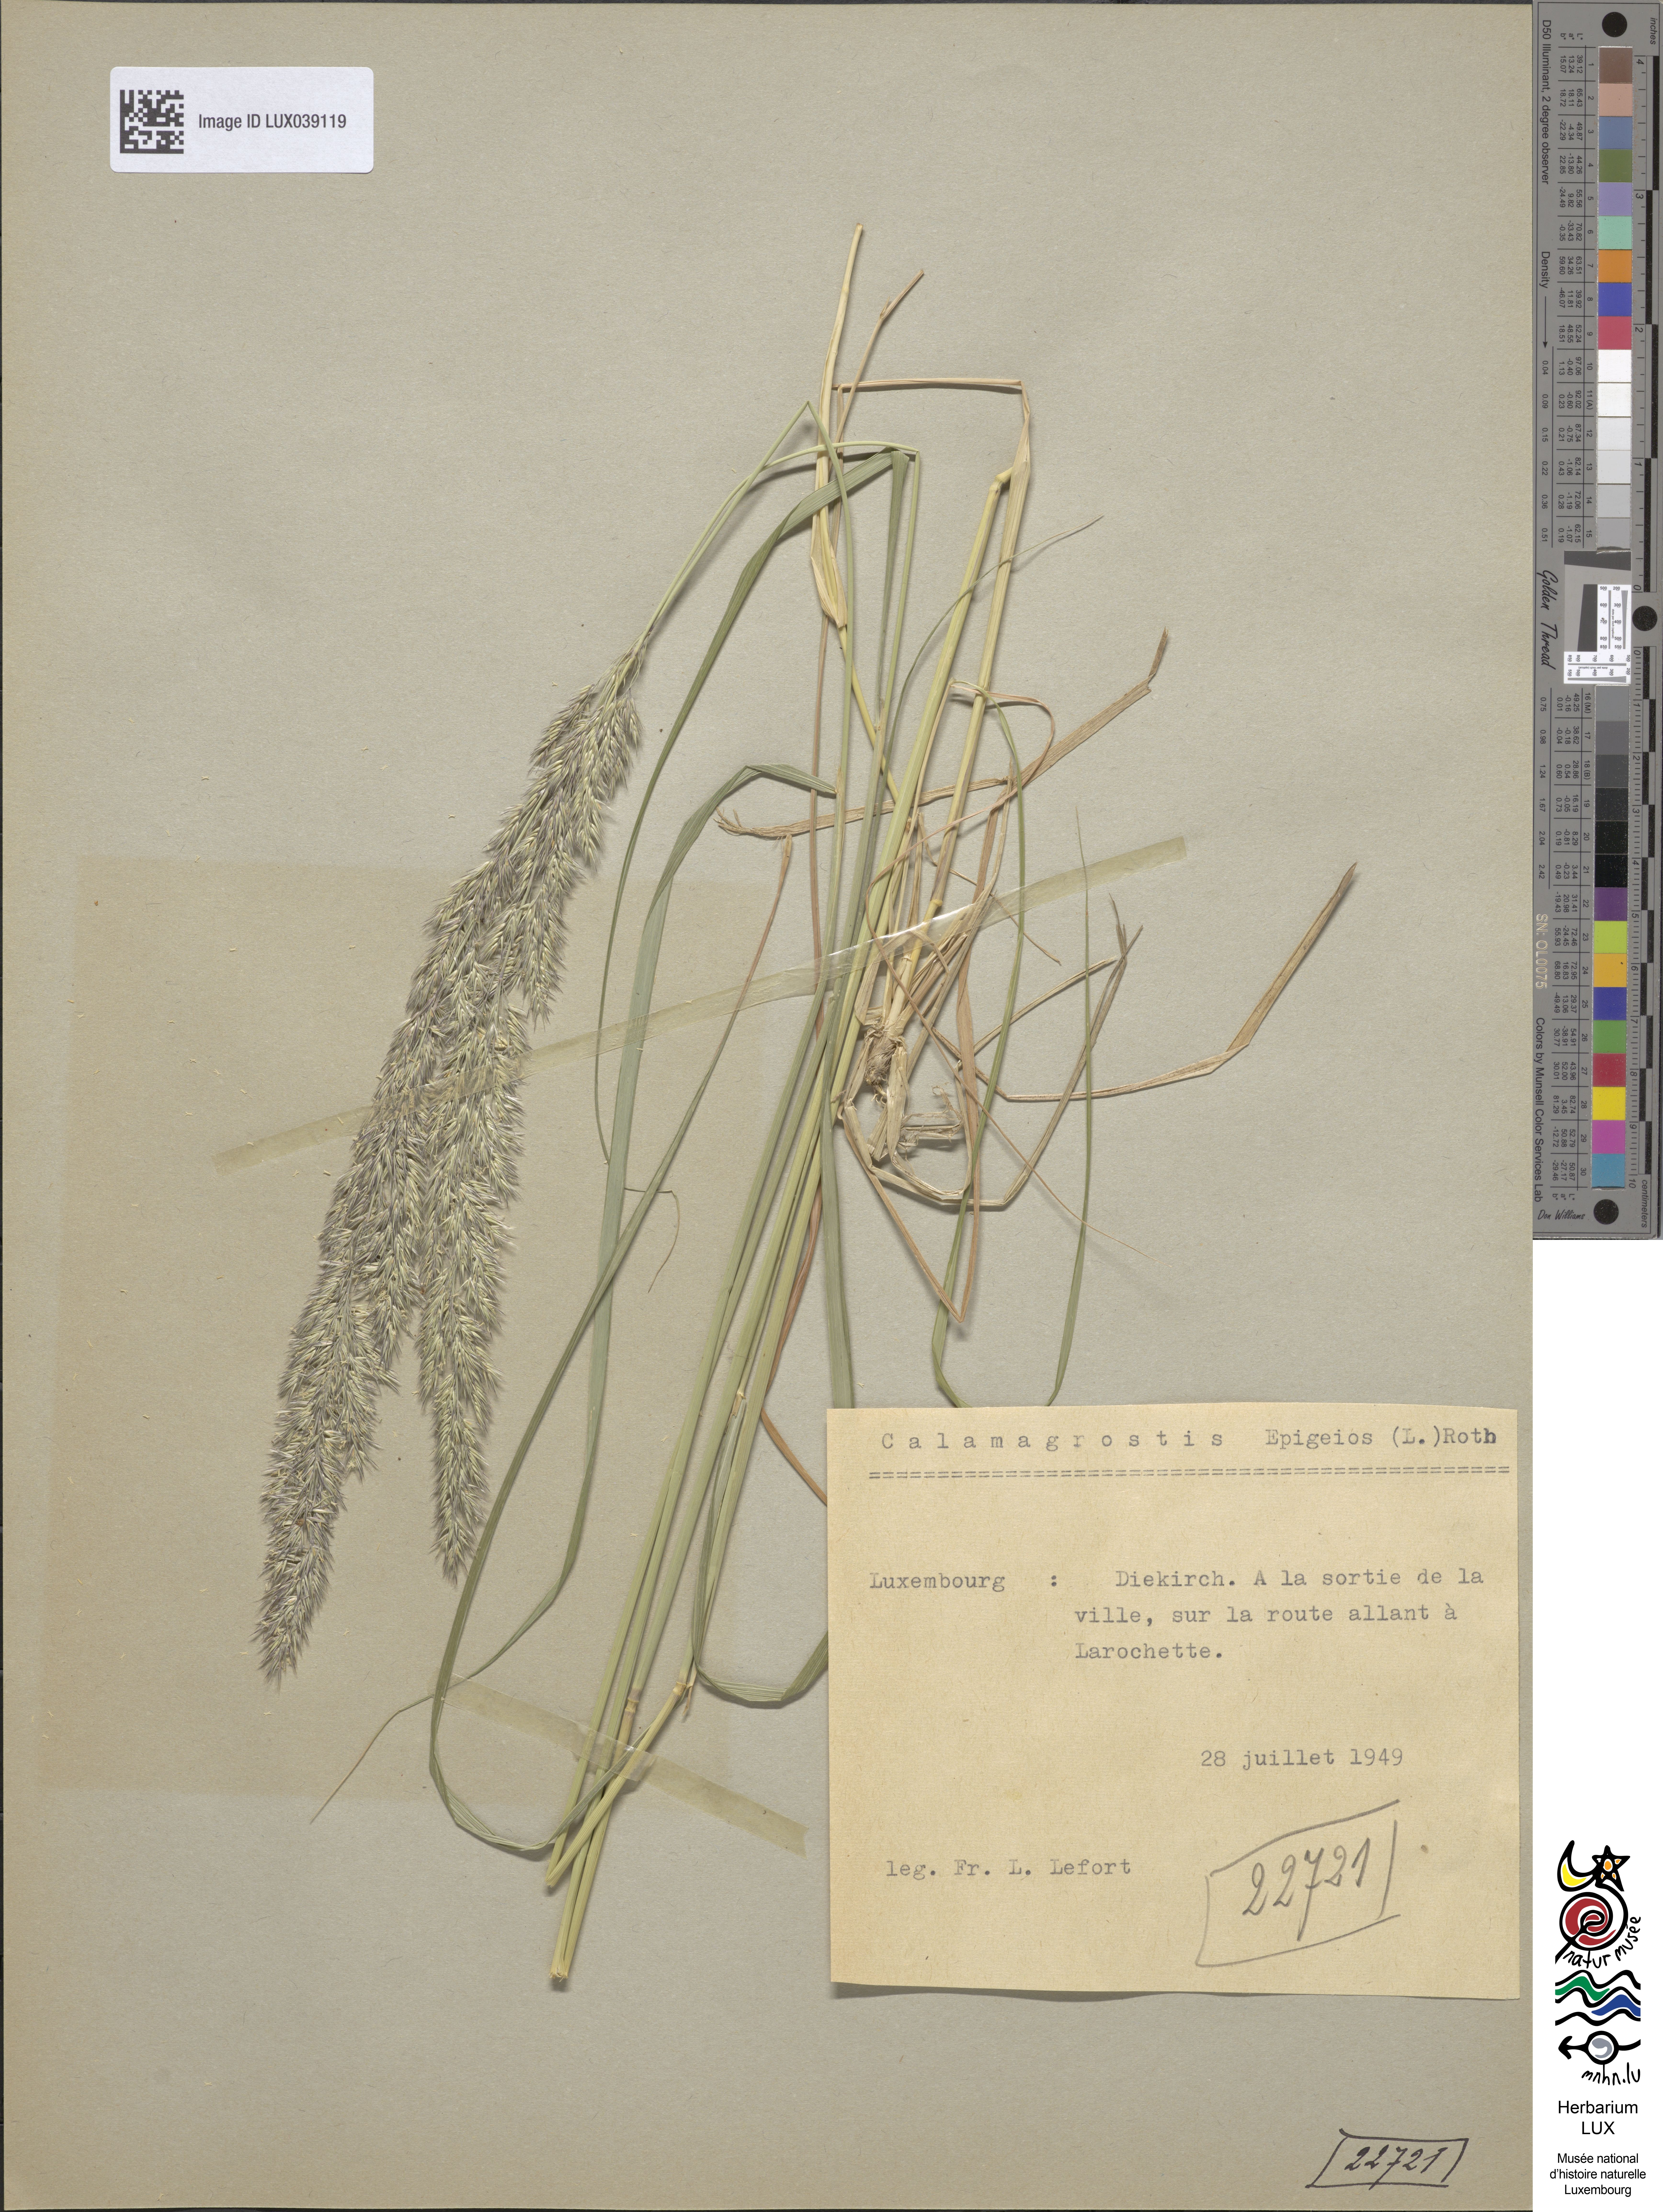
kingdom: Plantae
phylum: Tracheophyta
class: Liliopsida
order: Poales
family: Poaceae
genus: Calamagrostis
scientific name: Calamagrostis epigejos
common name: Wood small-reed
